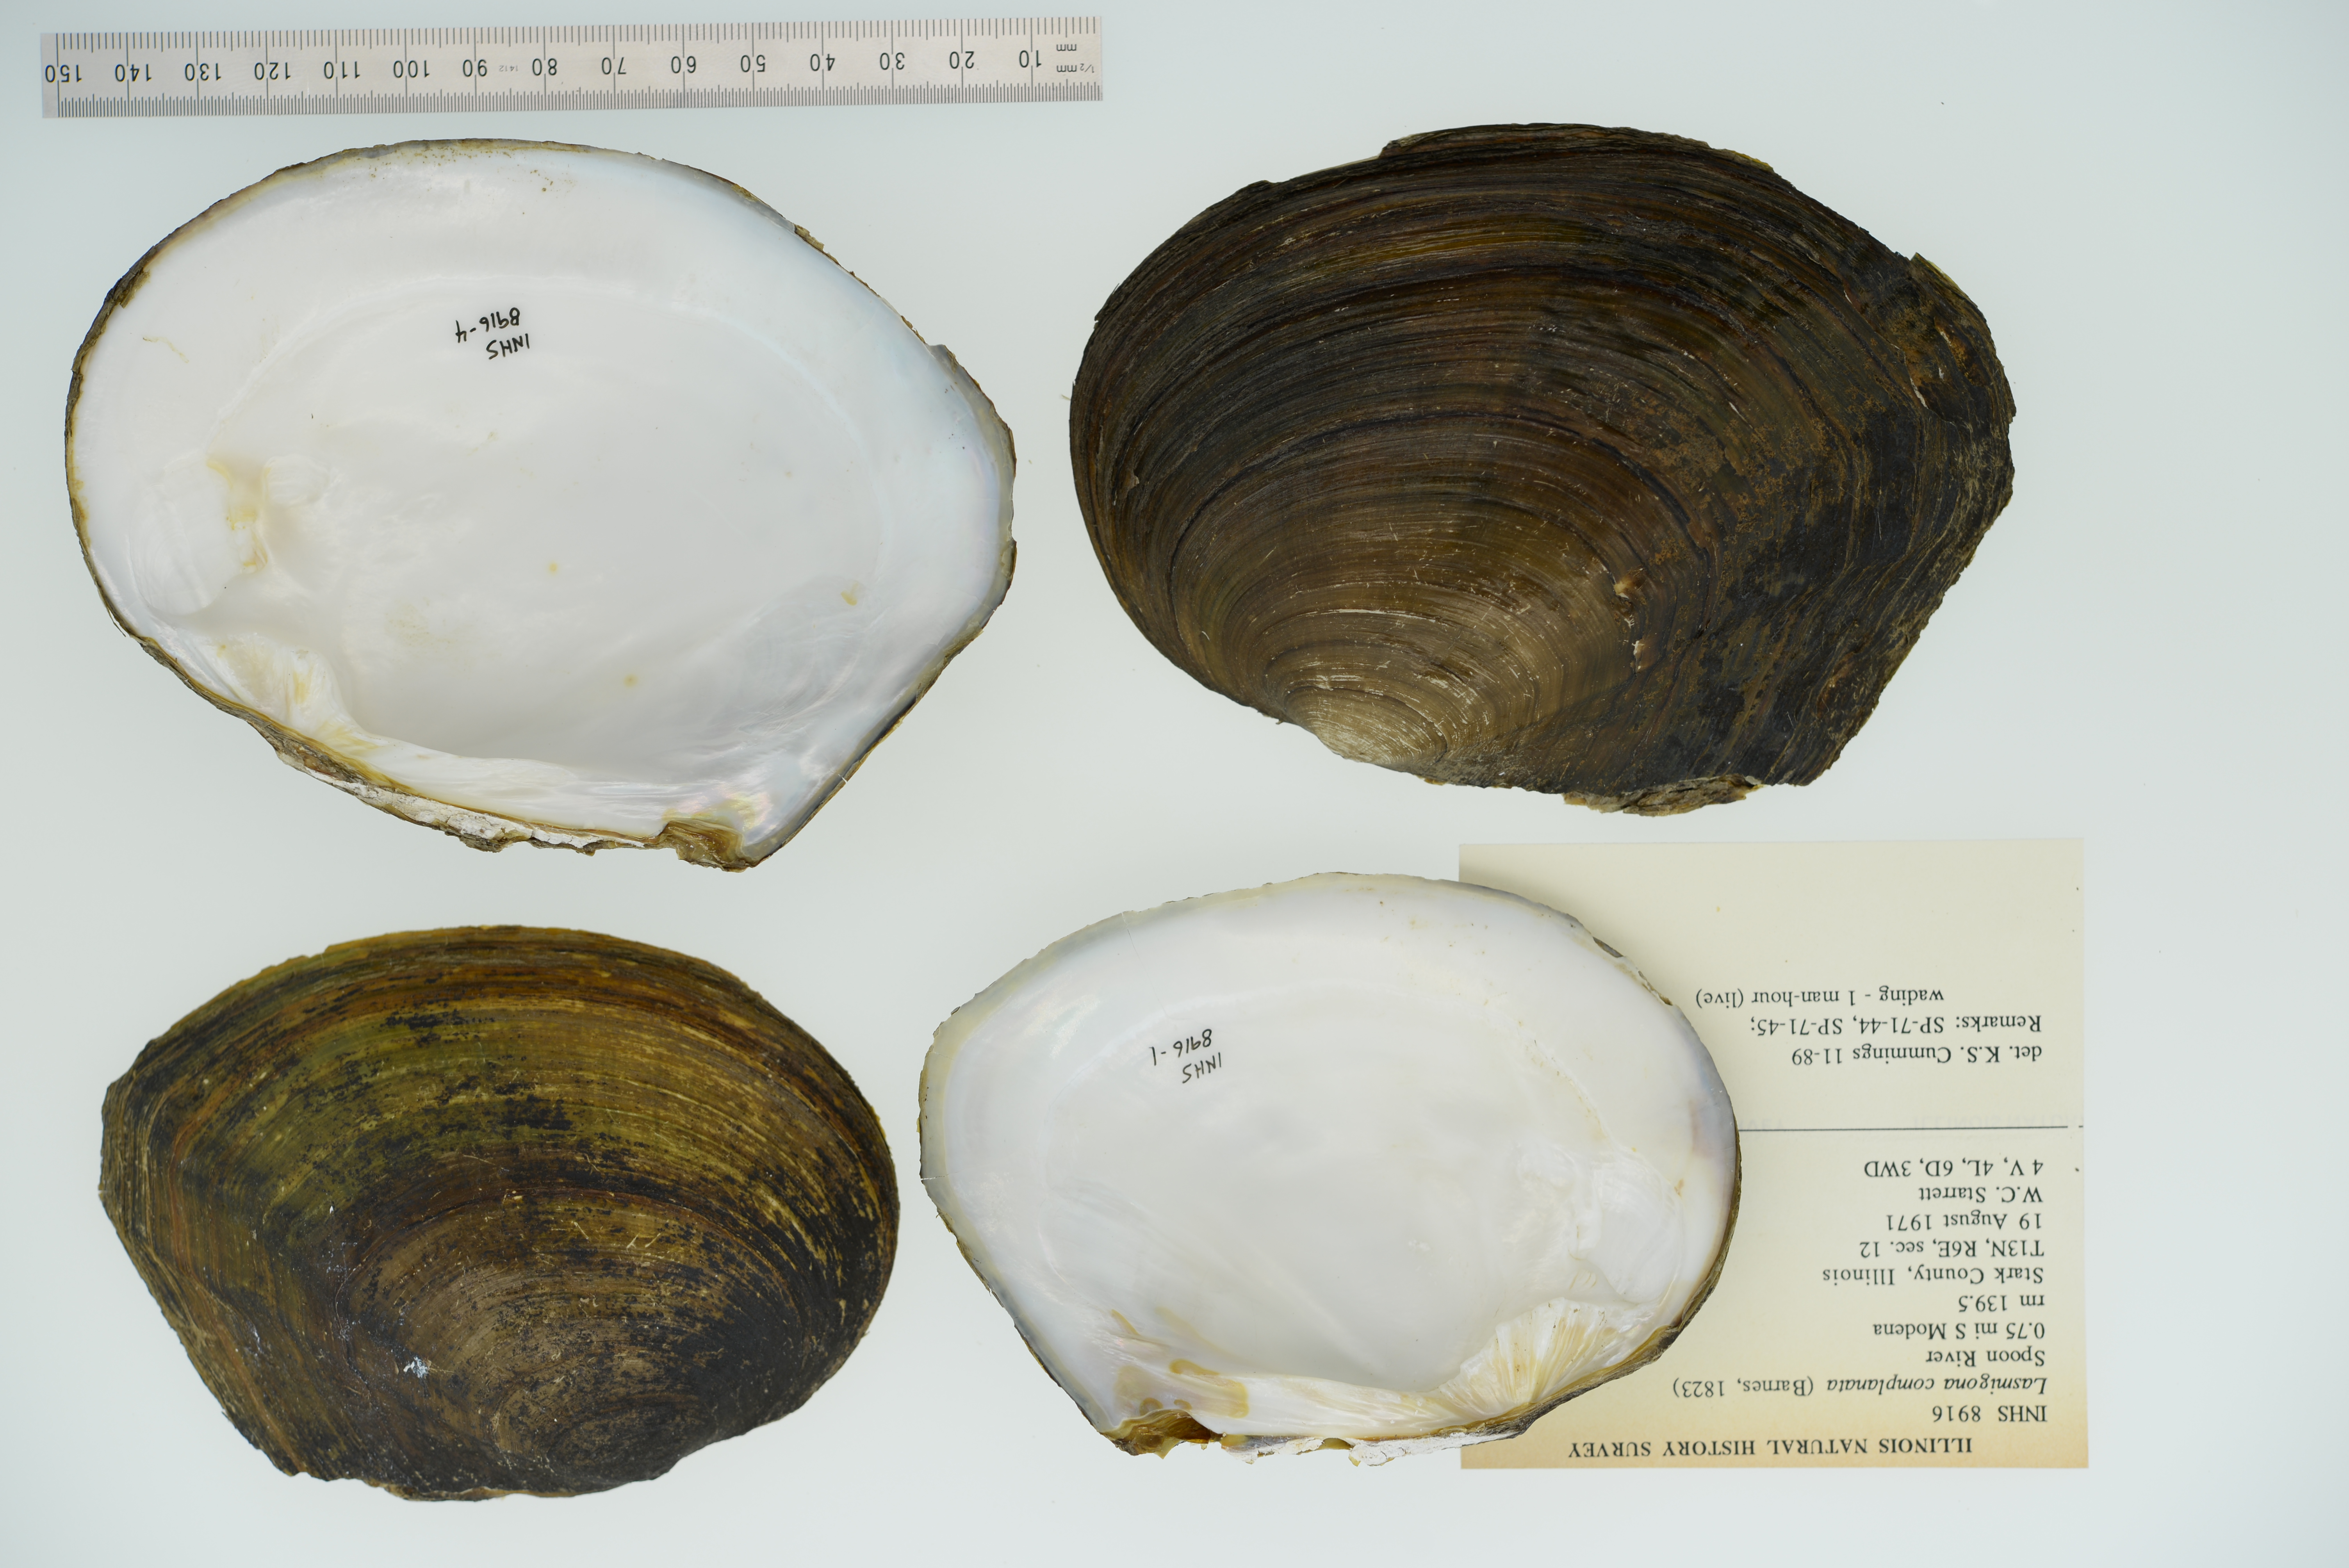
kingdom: Animalia
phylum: Mollusca
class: Bivalvia
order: Unionida
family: Unionidae
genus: Lasmigona
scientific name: Lasmigona complanata
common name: White heelsplitter
